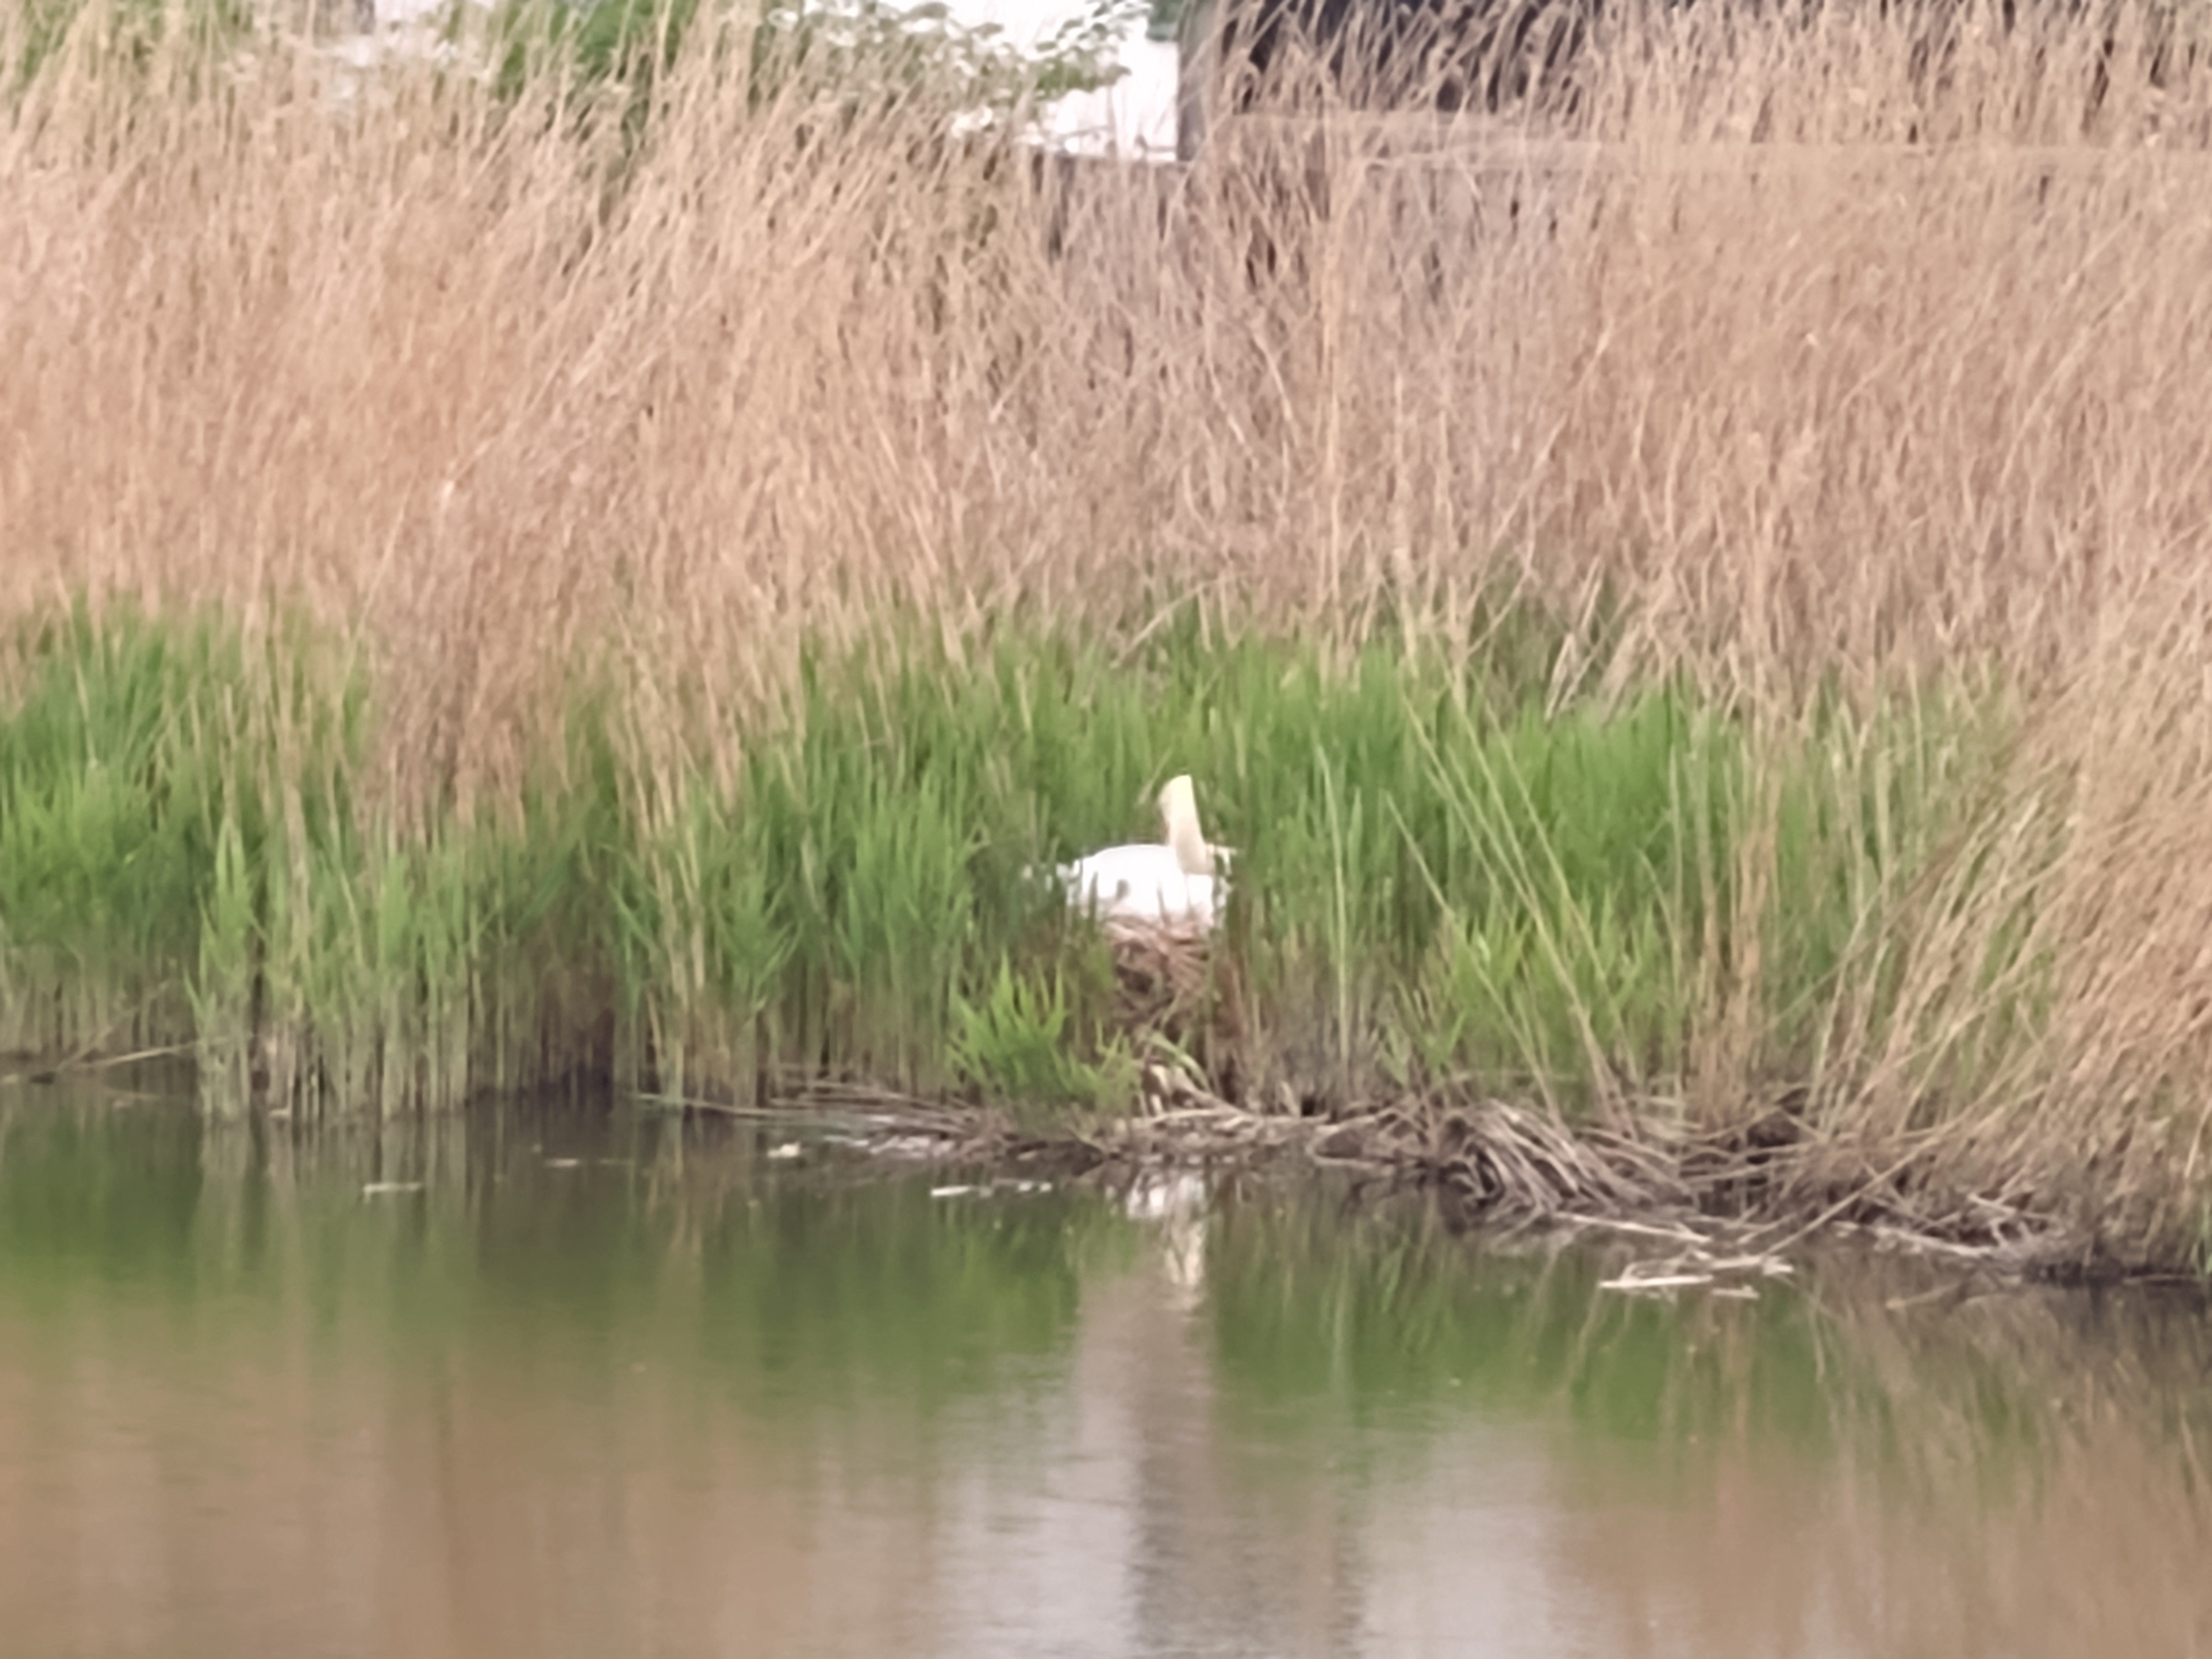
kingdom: Animalia
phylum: Chordata
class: Aves
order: Anseriformes
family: Anatidae
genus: Cygnus
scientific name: Cygnus olor
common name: Knopsvane
